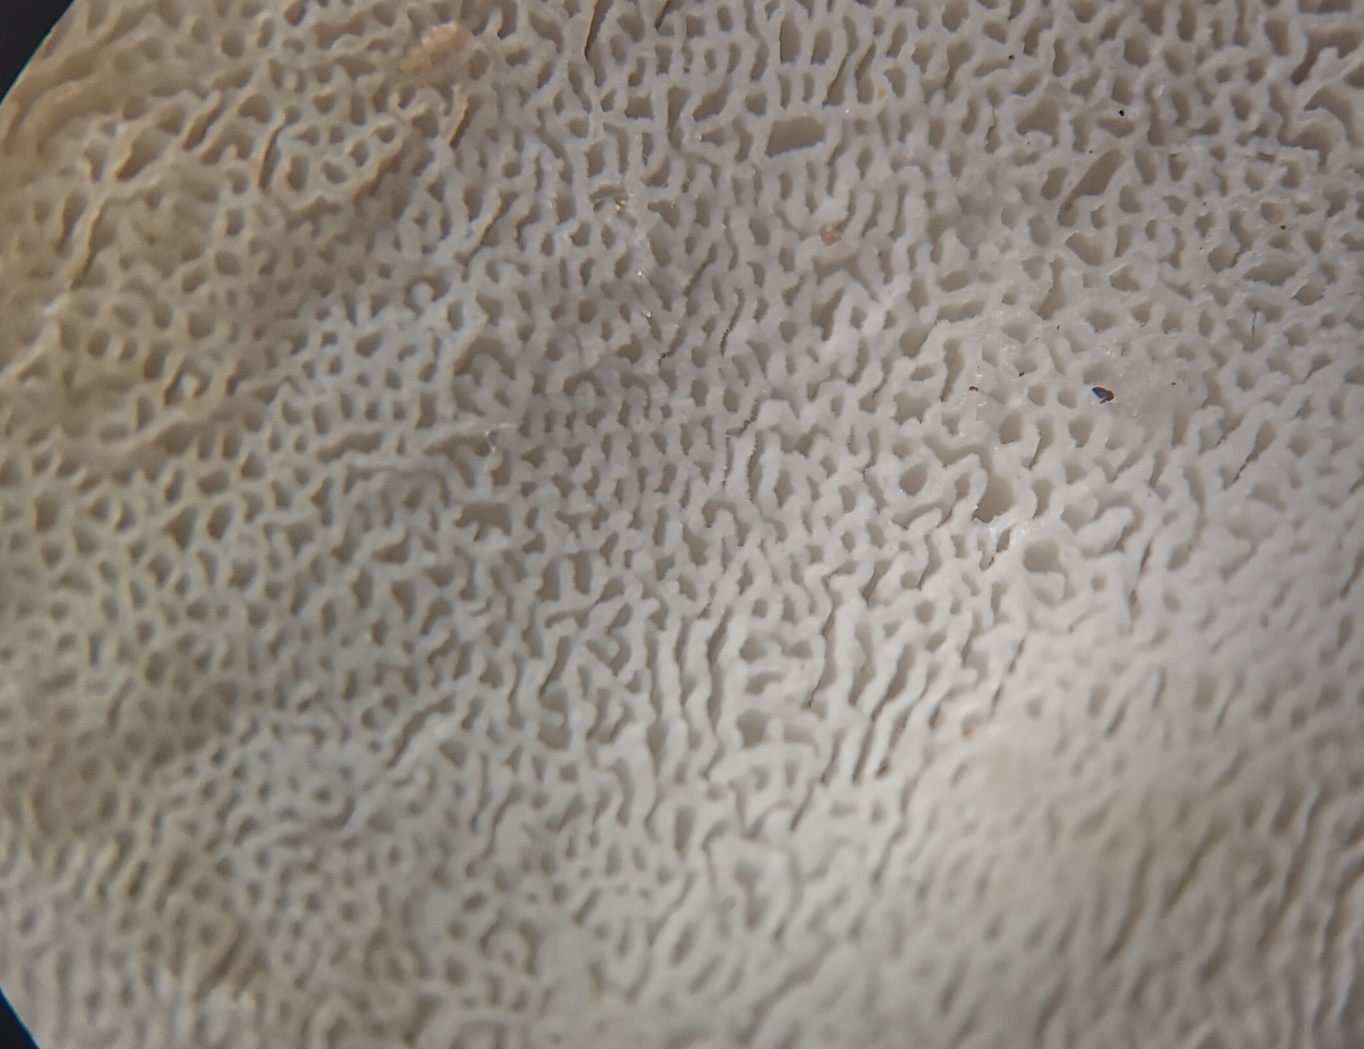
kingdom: Fungi
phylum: Basidiomycota
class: Agaricomycetes
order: Polyporales
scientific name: Polyporales
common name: poresvampordenen
